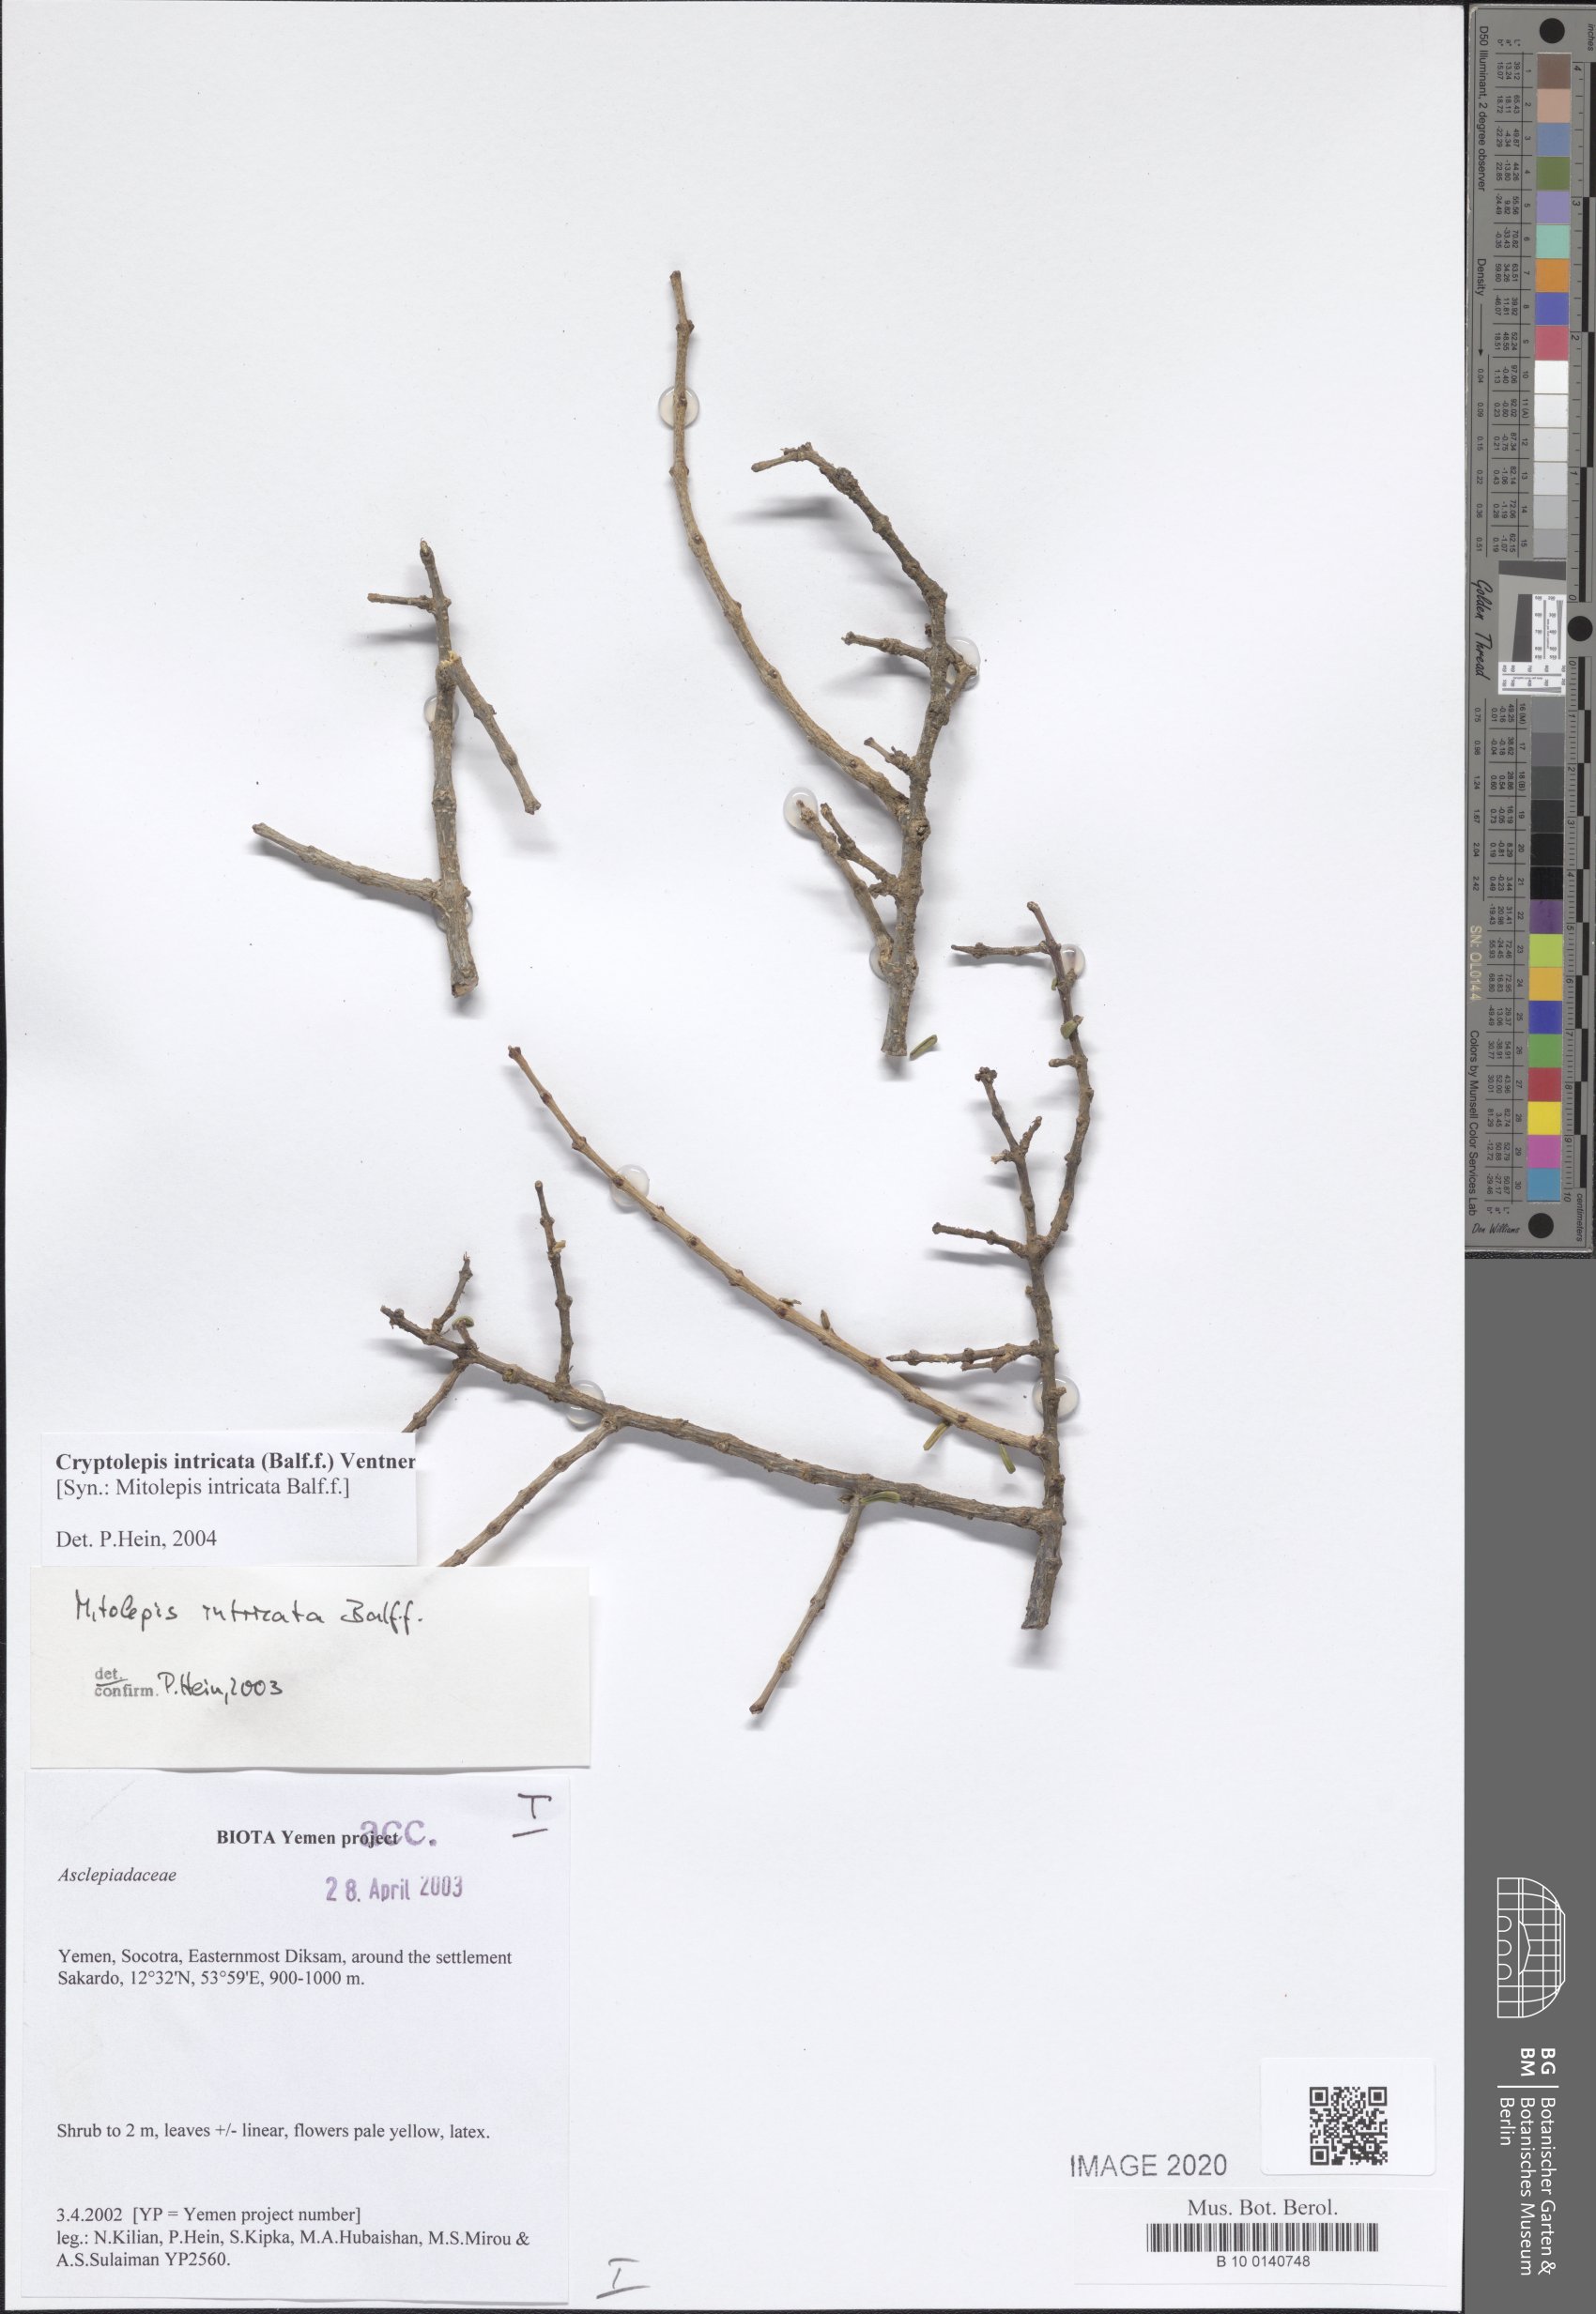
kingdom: Plantae
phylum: Tracheophyta
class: Magnoliopsida
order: Gentianales
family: Apocynaceae
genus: Cryptolepis
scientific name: Cryptolepis intricata
